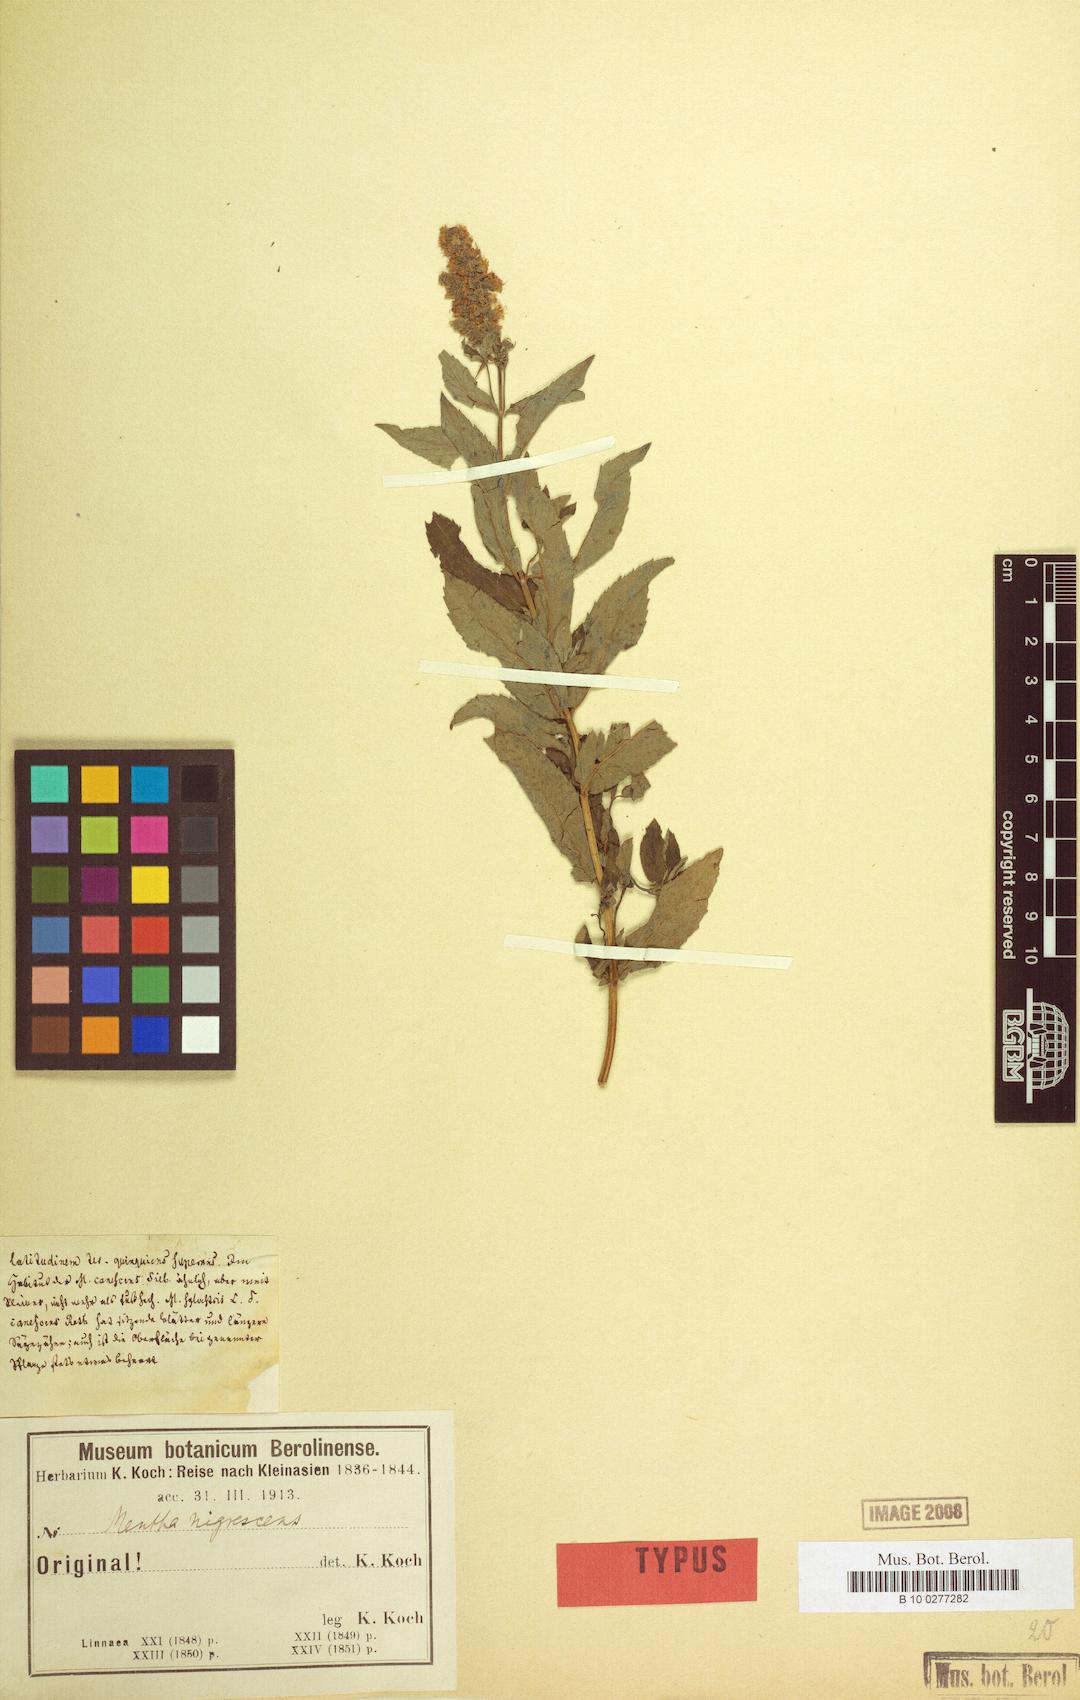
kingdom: Plantae
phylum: Tracheophyta
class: Magnoliopsida
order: Lamiales
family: Lamiaceae
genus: Mentha
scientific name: Mentha longifolia
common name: Horse mint
